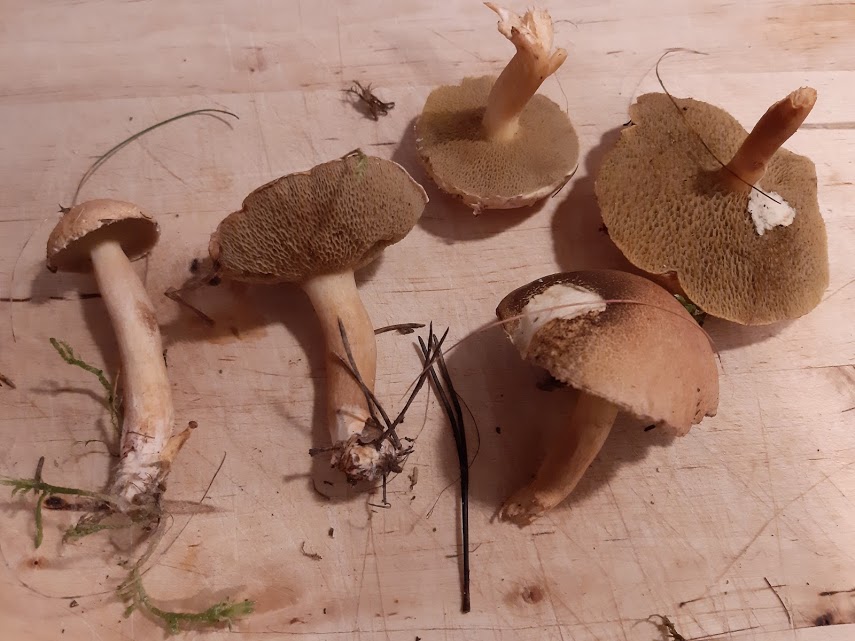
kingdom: Fungi
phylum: Basidiomycota
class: Agaricomycetes
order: Boletales
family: Suillaceae
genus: Suillus
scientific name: Suillus bovinus
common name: grovporet slimrørhat
